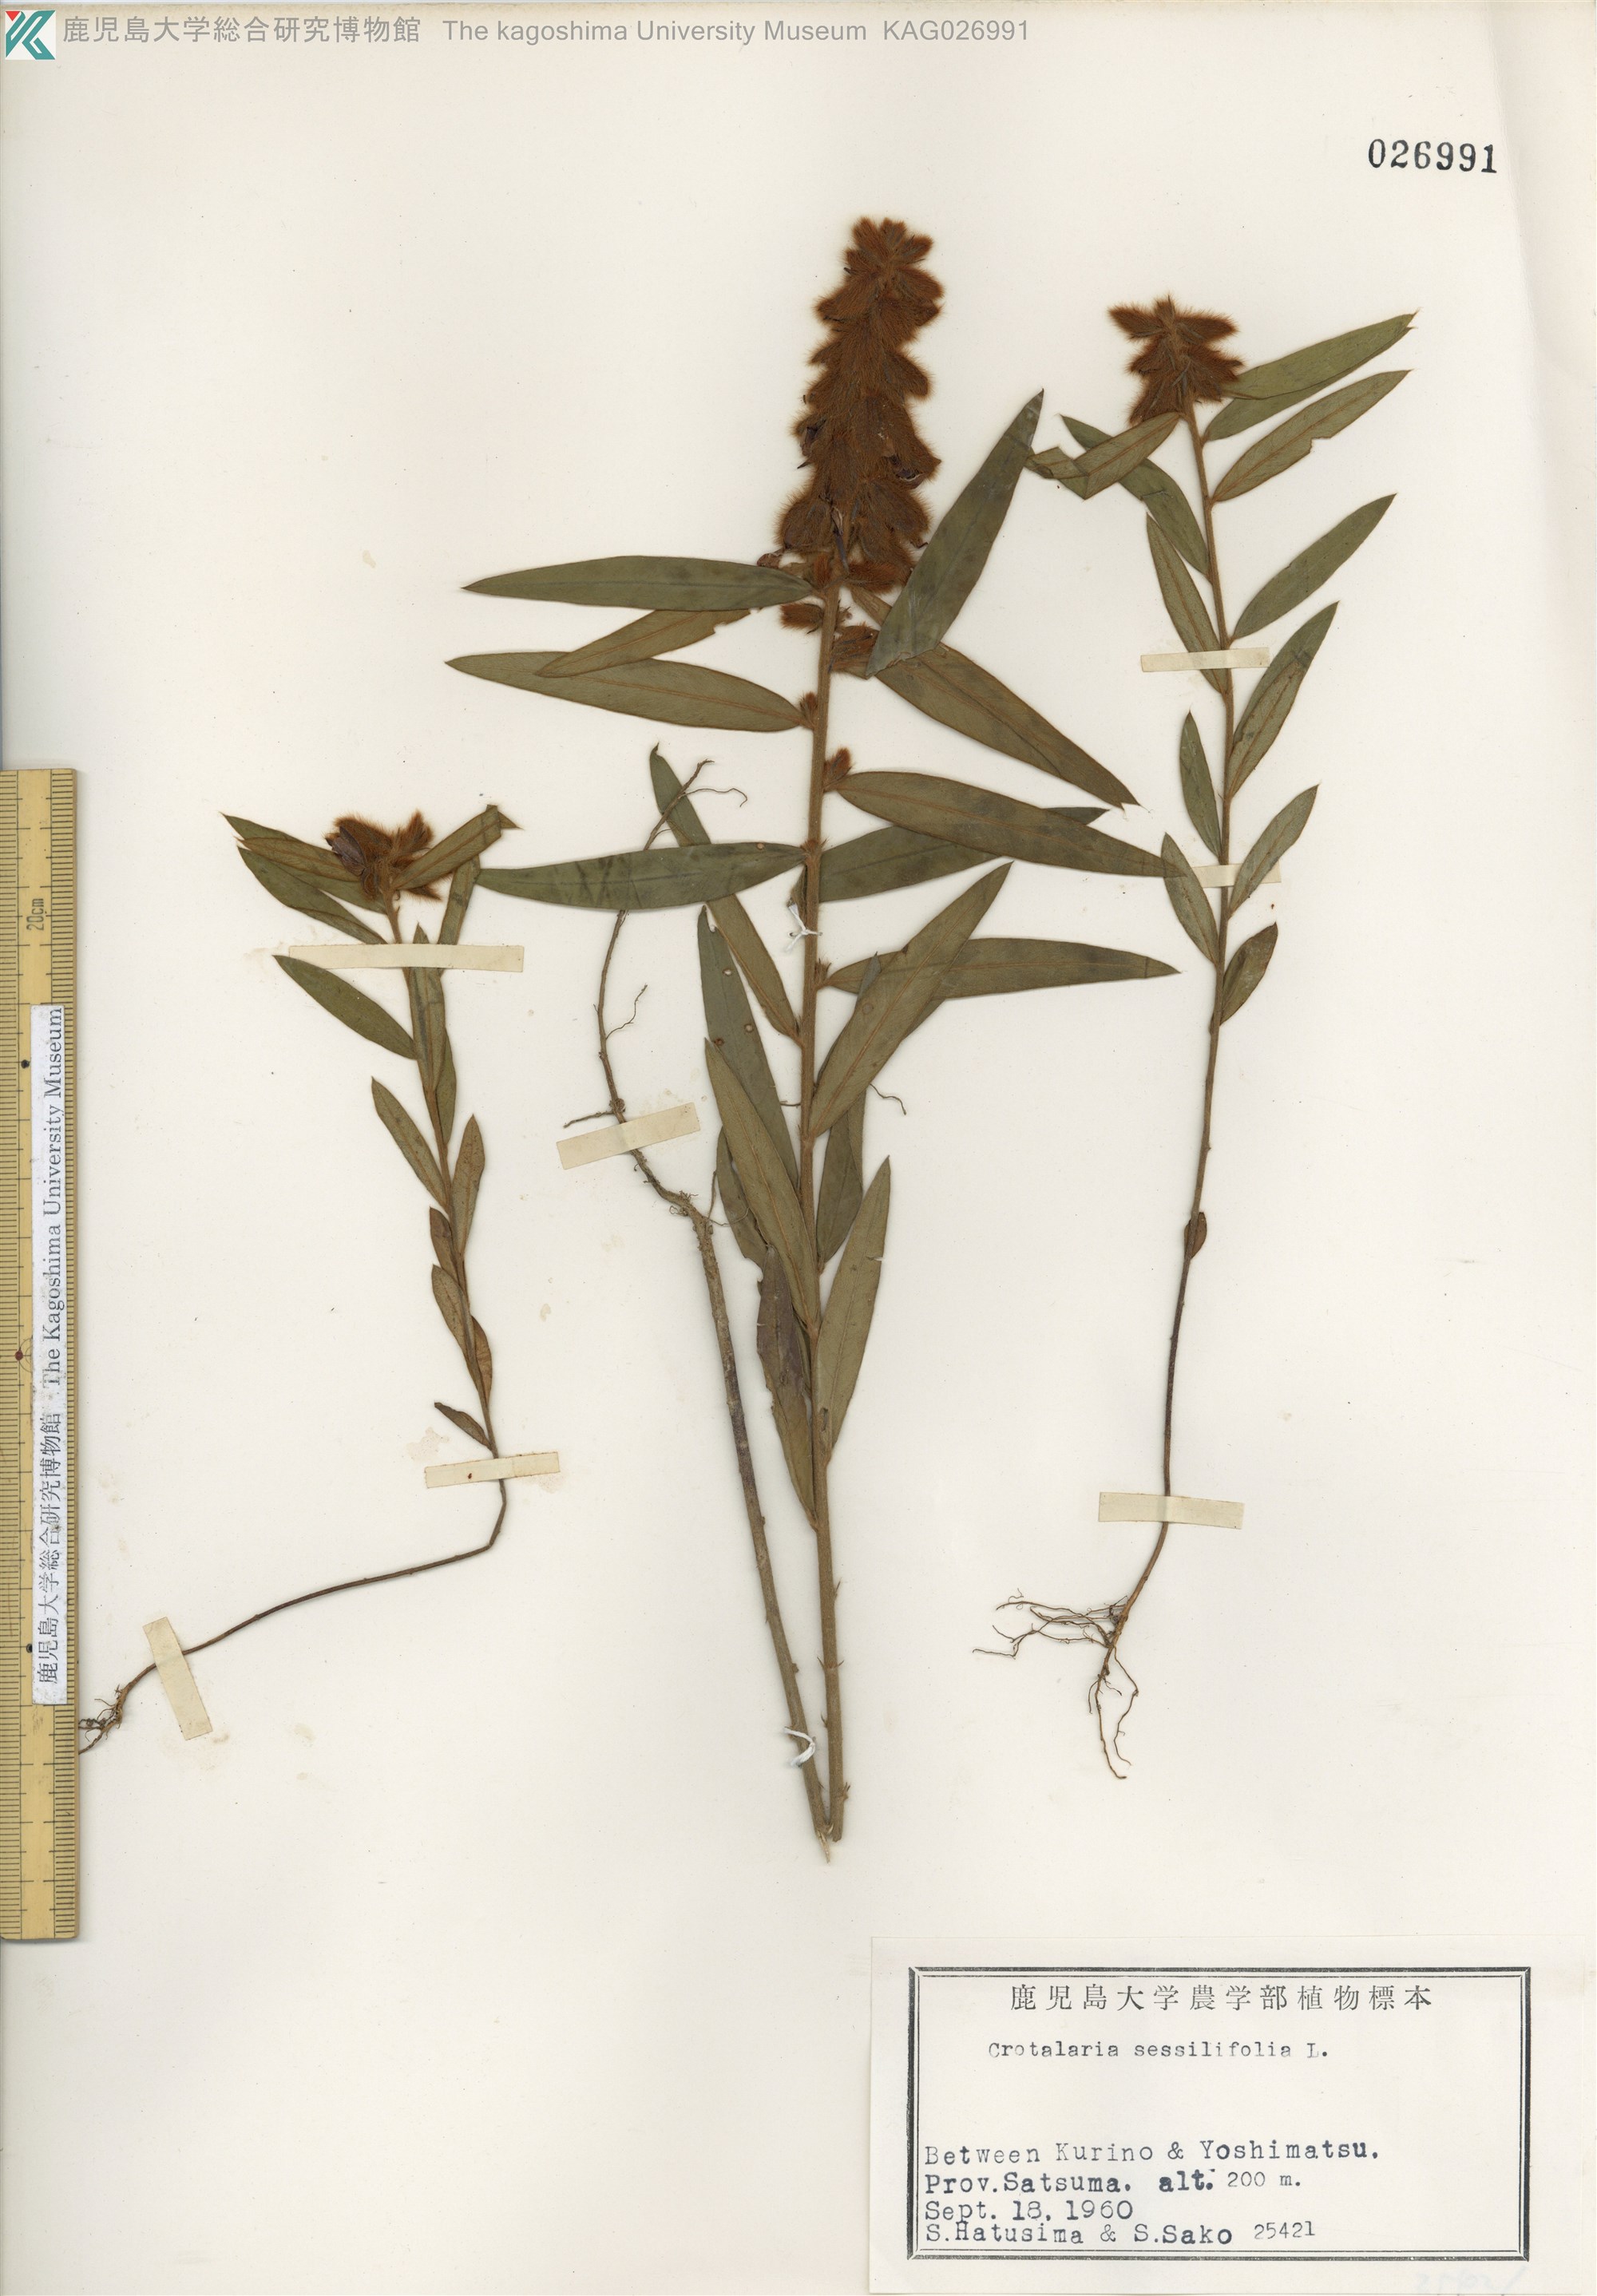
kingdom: Plantae
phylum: Tracheophyta
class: Magnoliopsida
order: Fabales
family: Fabaceae
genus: Crotalaria
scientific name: Crotalaria sessiliflora
